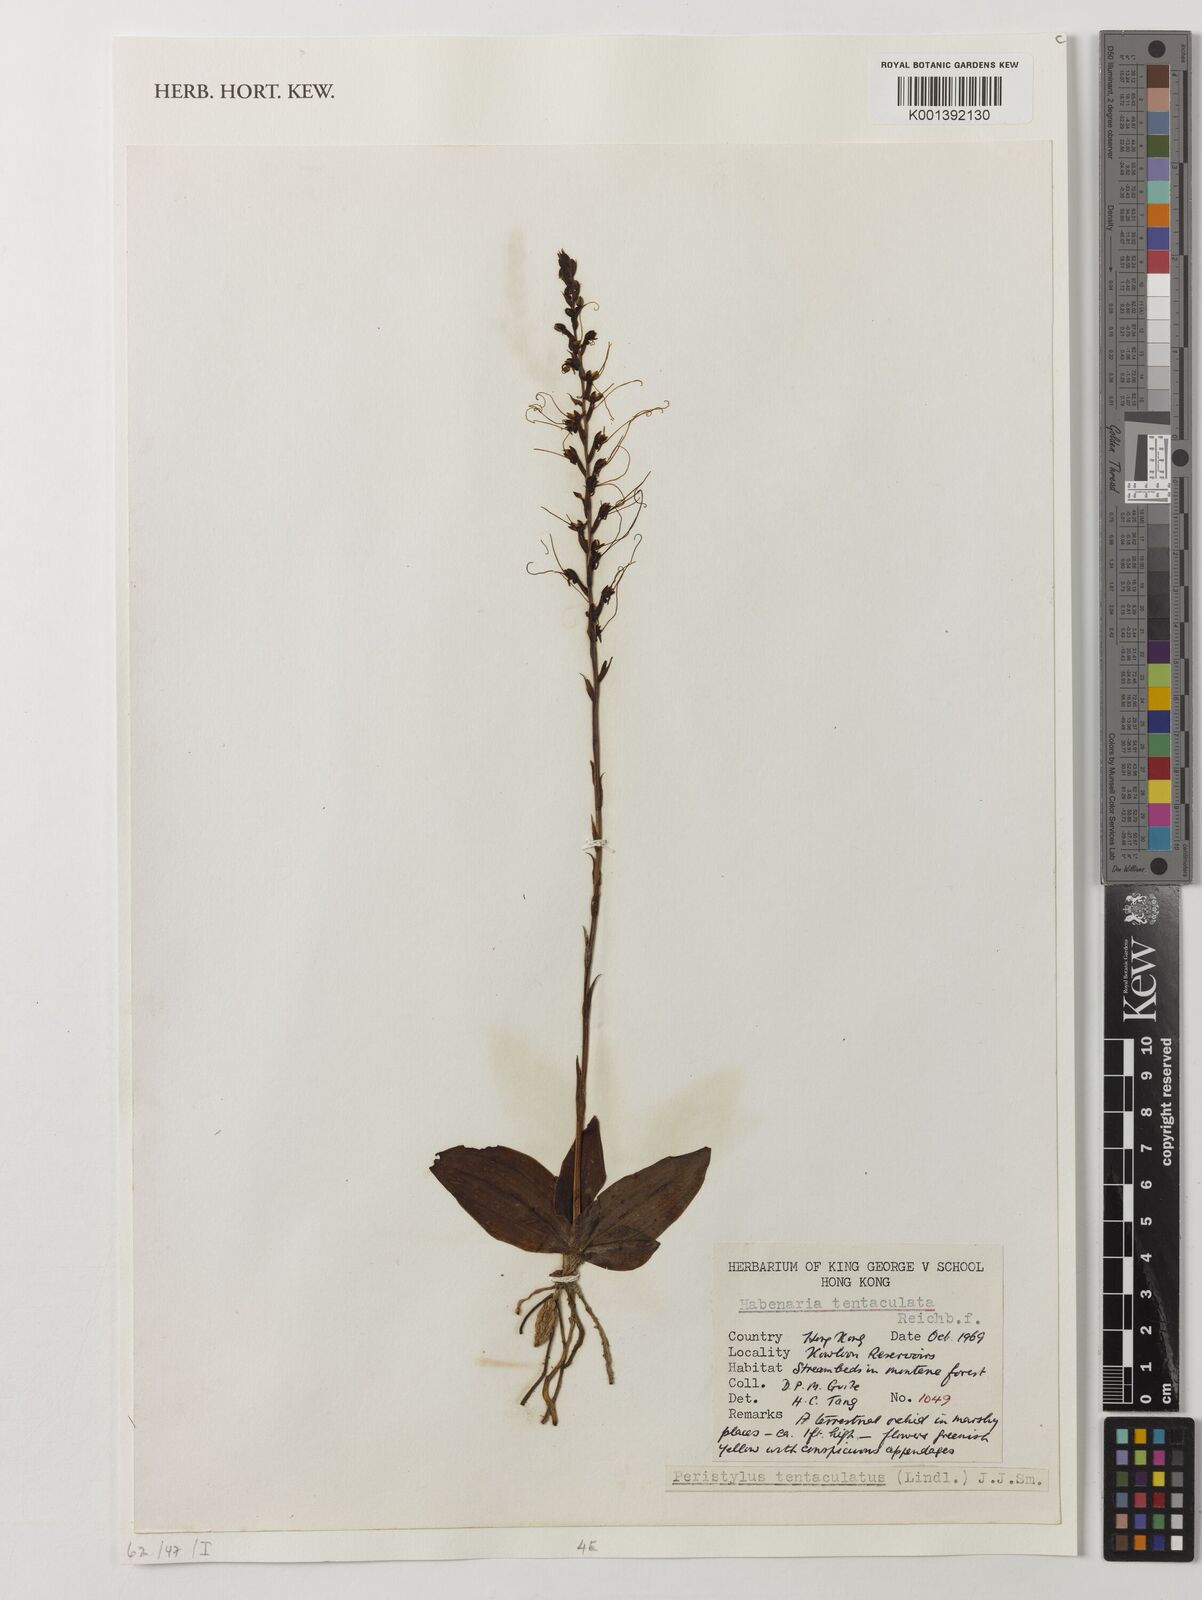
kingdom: Plantae
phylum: Tracheophyta
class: Liliopsida
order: Asparagales
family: Orchidaceae
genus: Peristylus
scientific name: Peristylus tentaculatus
